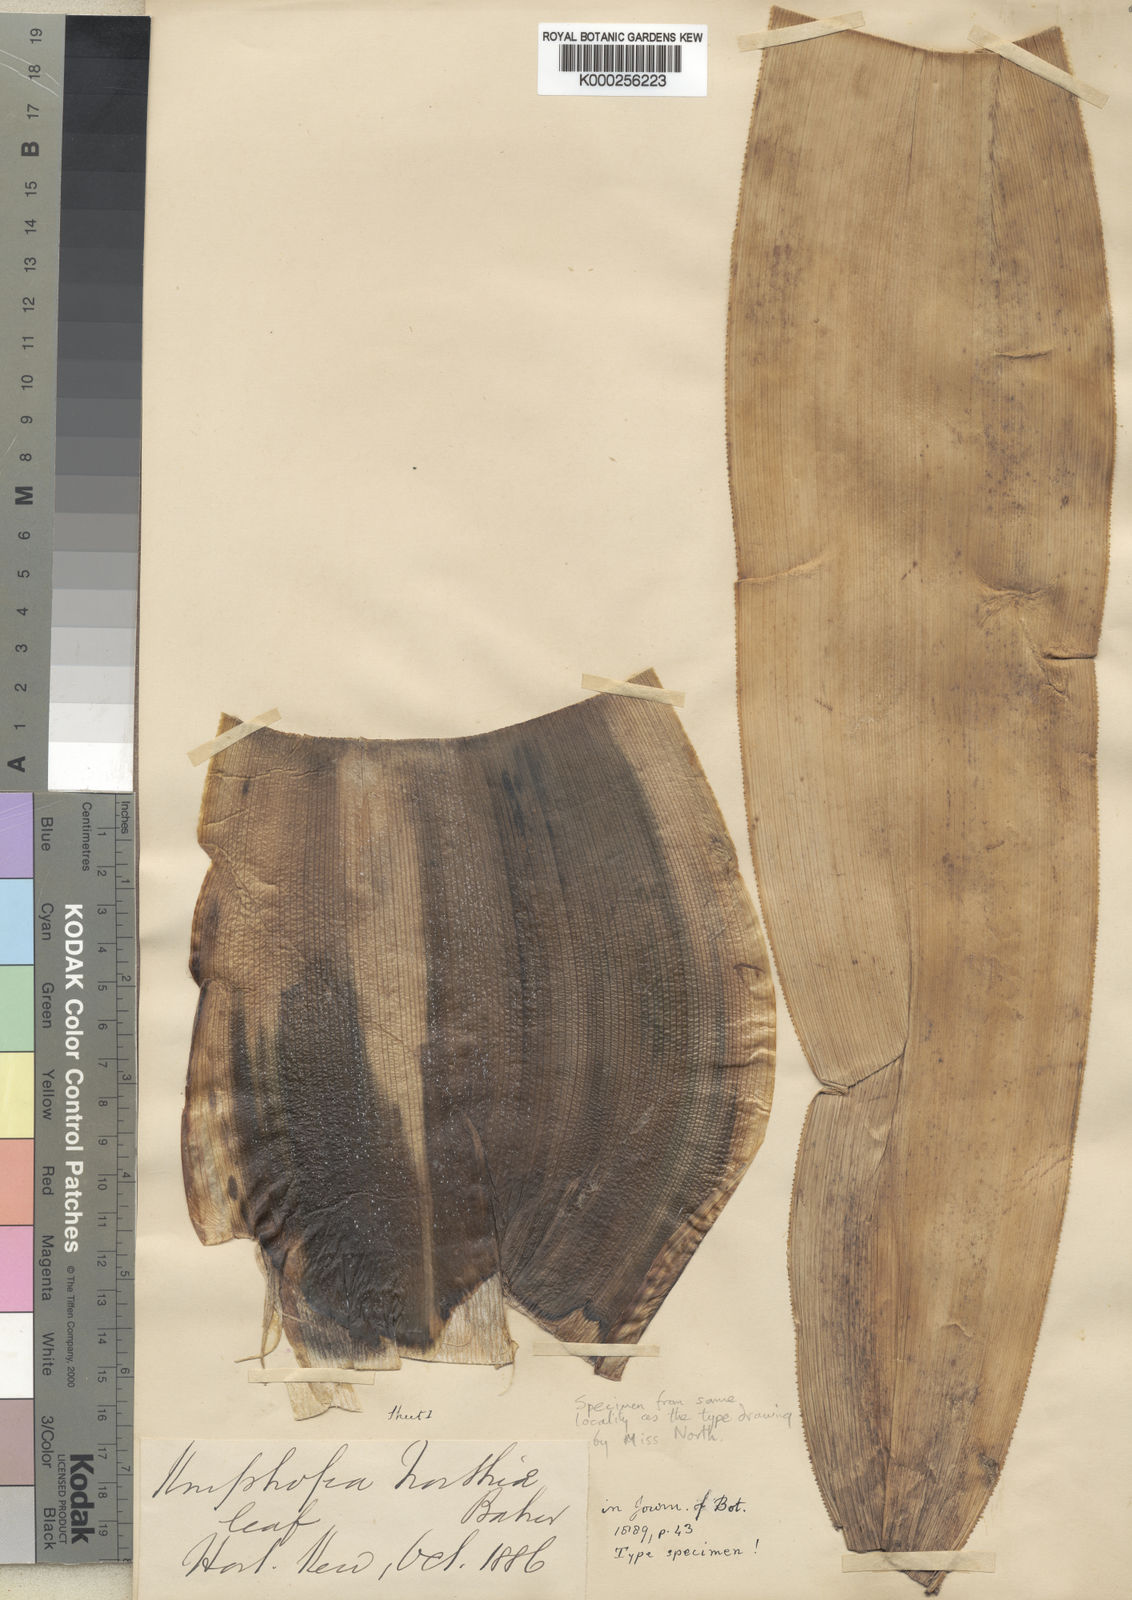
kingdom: Plantae
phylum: Tracheophyta
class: Liliopsida
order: Asparagales
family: Asphodelaceae
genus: Kniphofia
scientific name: Kniphofia northiae
